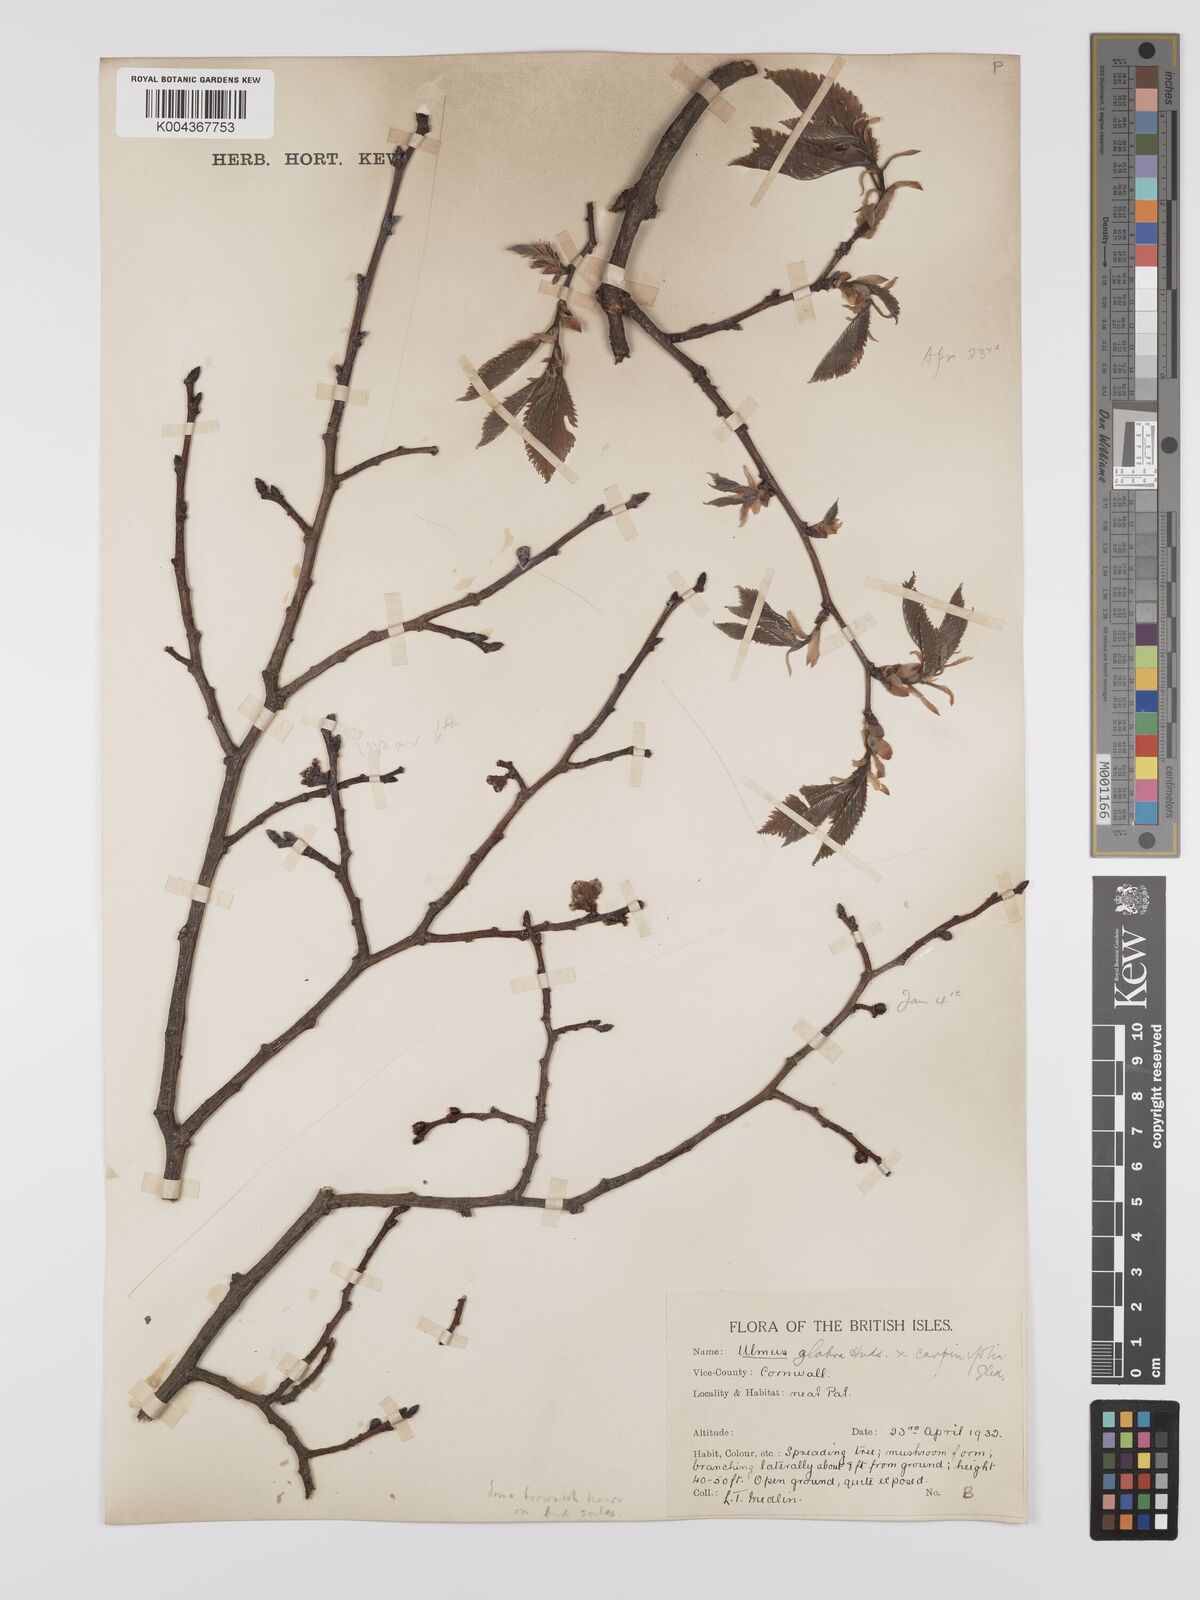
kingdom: Plantae
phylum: Tracheophyta
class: Magnoliopsida
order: Rosales
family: Ulmaceae
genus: Ulmus
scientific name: Ulmus minor
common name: Small-leaved elm
